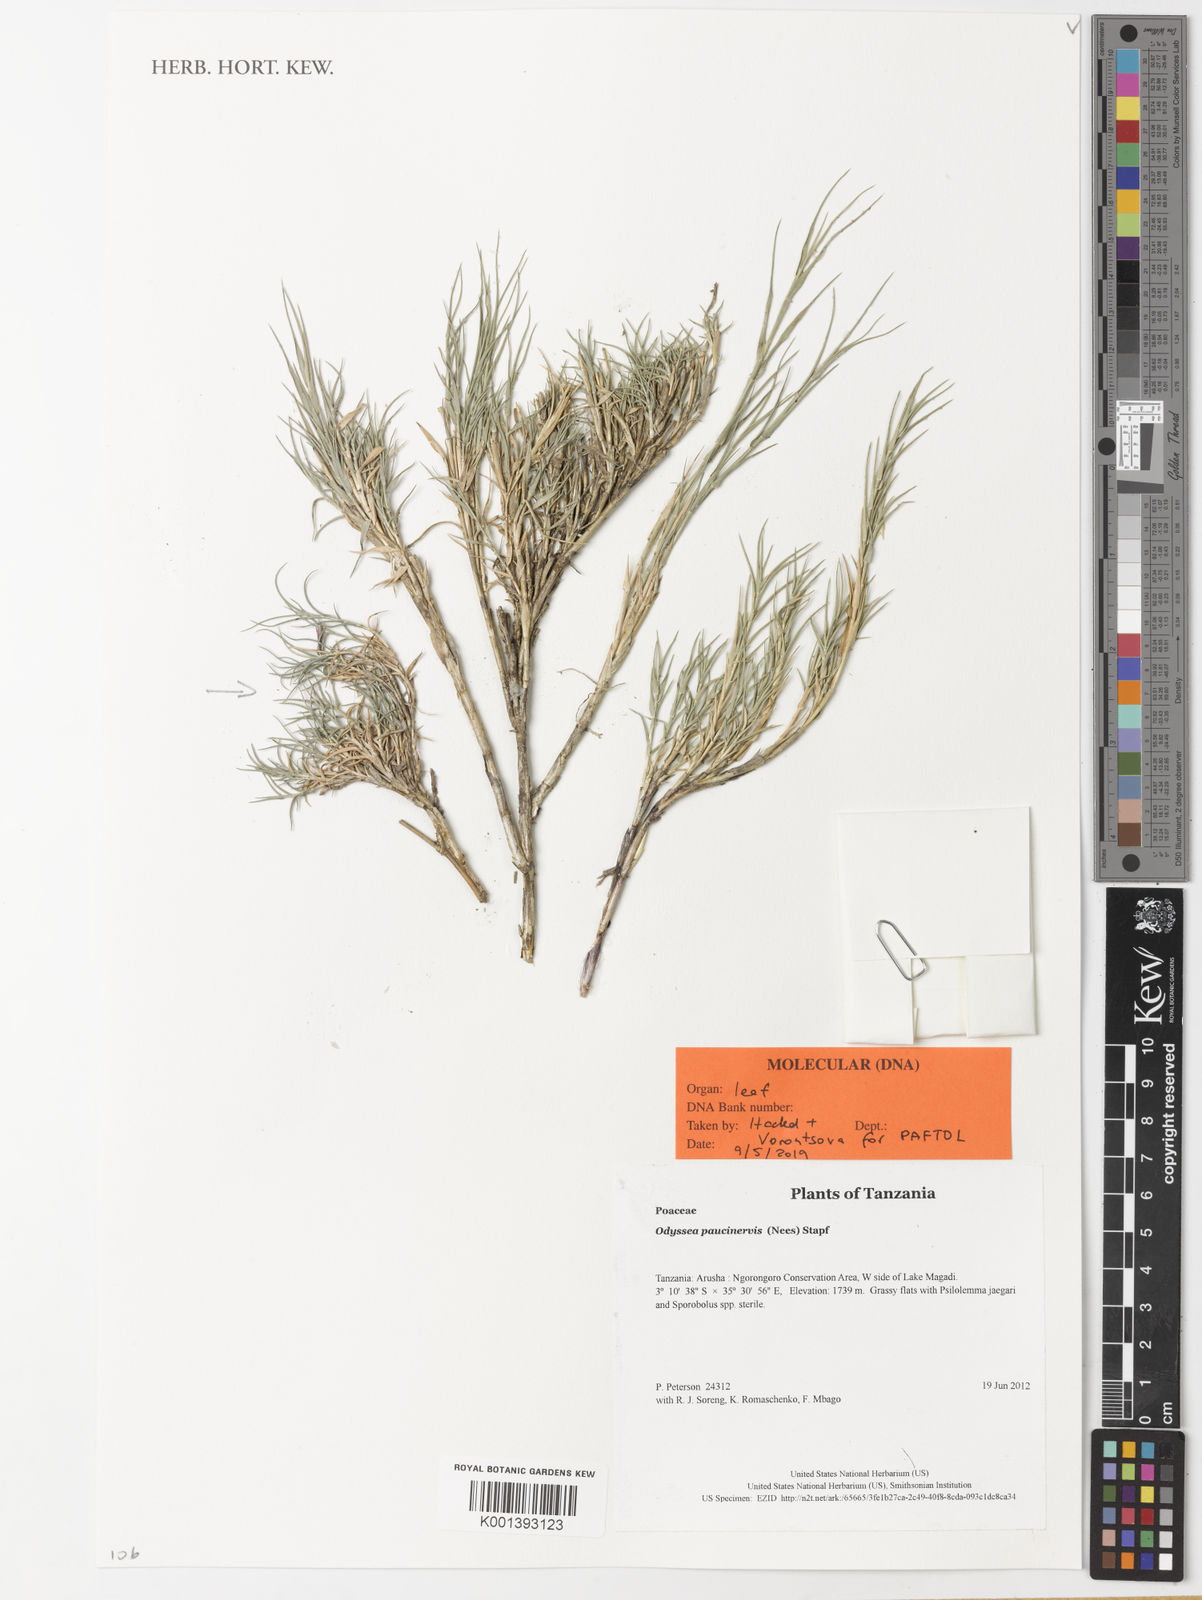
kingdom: Plantae
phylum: Tracheophyta
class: Liliopsida
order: Poales
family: Poaceae
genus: Odyssea
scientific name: Odyssea paucinervis
